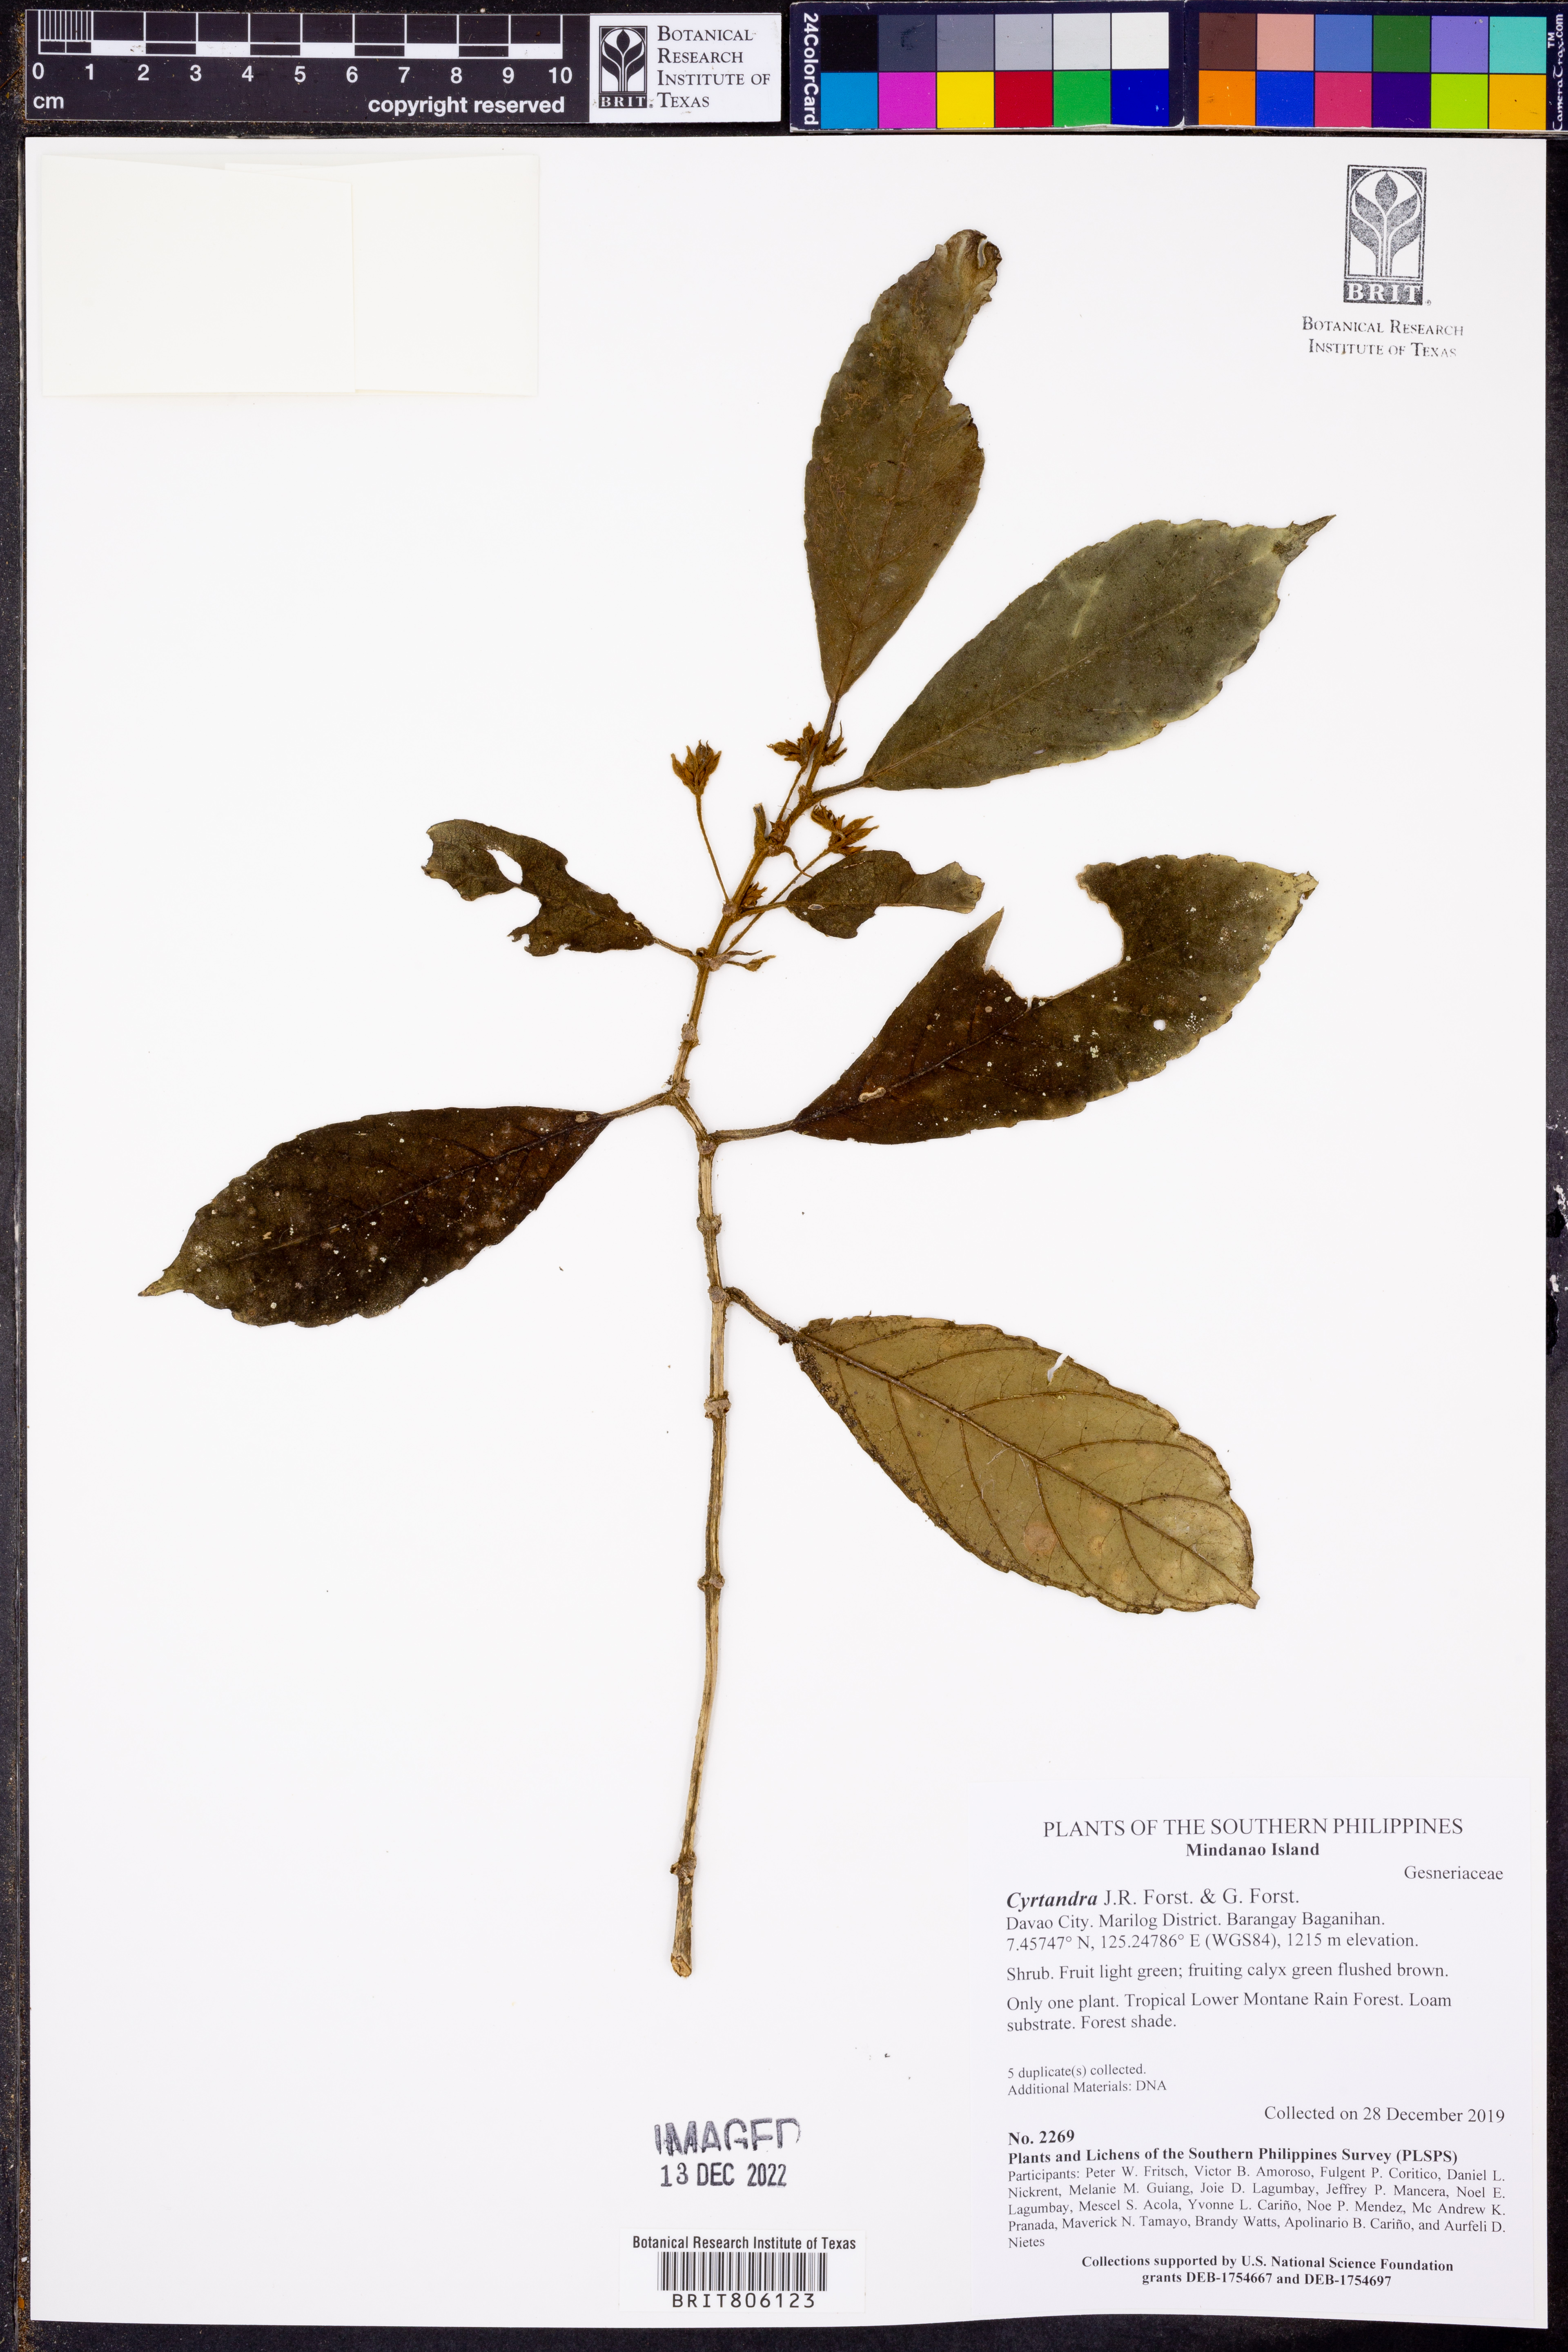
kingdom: Plantae
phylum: Tracheophyta
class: Magnoliopsida
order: Lamiales
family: Gesneriaceae
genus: Cyrtandra
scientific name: Cyrtandra
